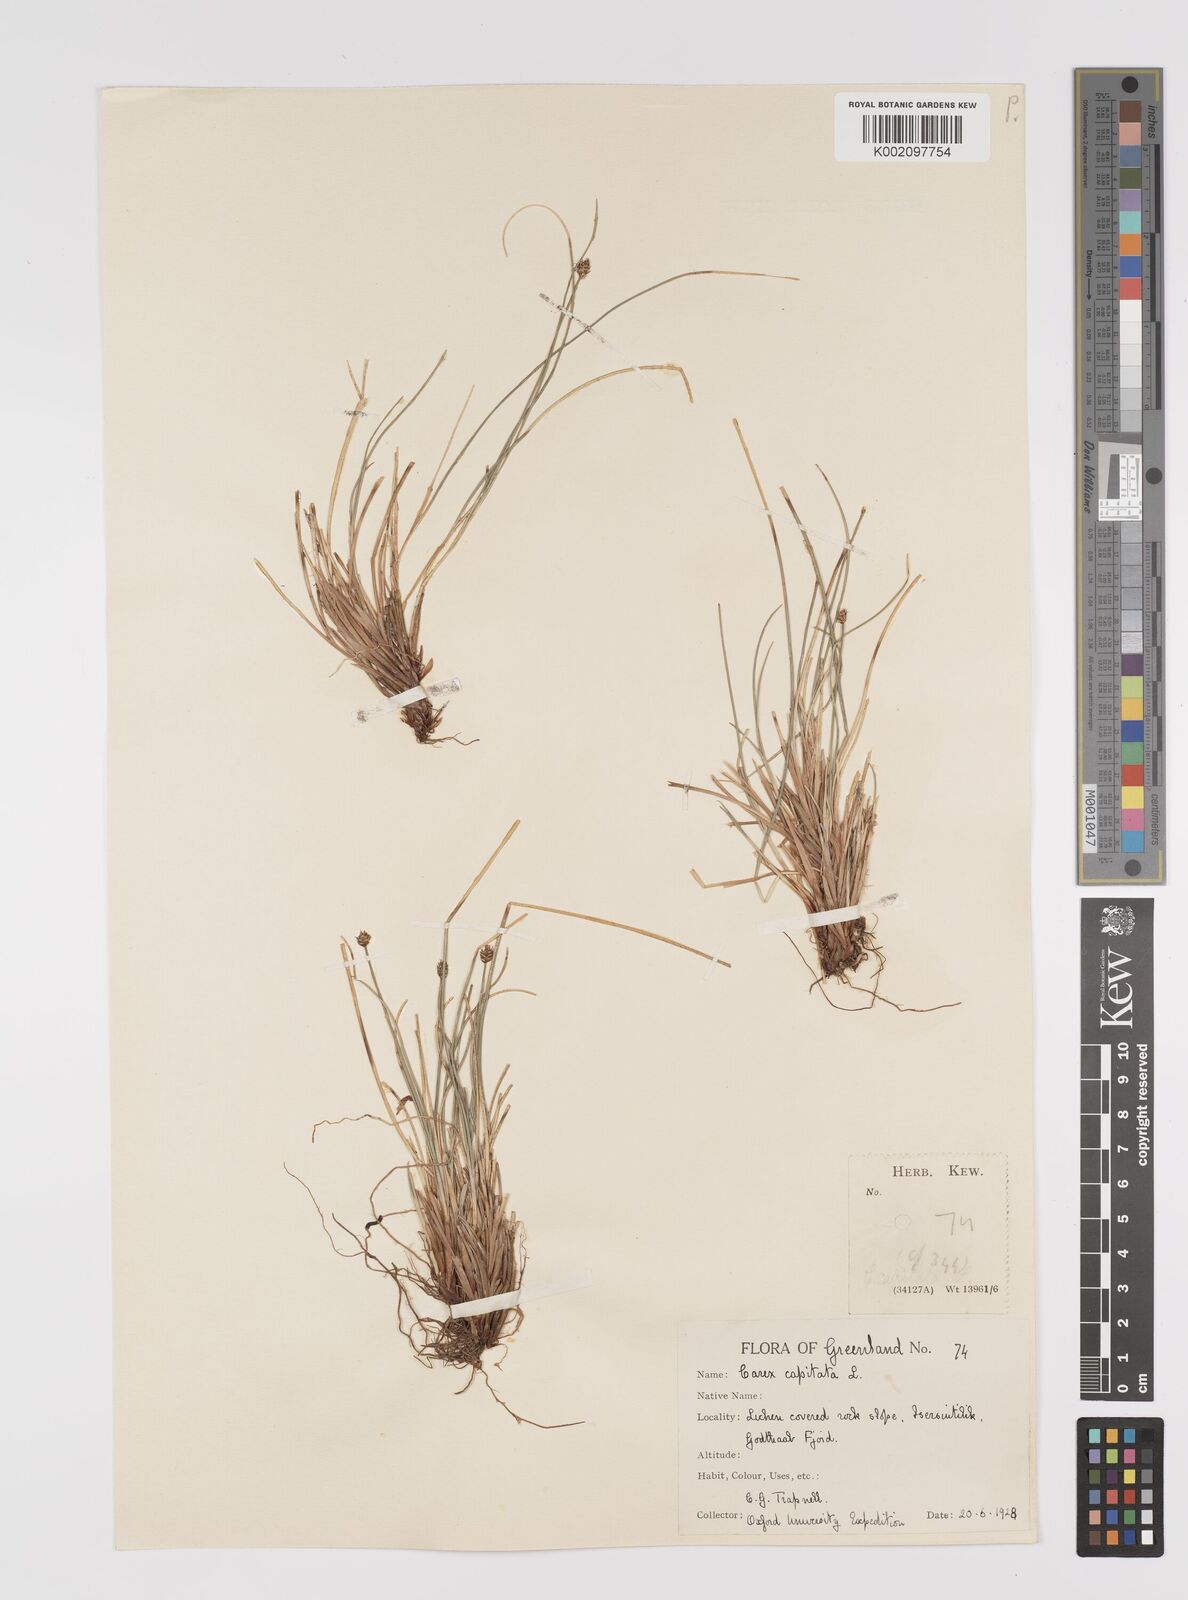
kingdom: Plantae
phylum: Tracheophyta
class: Liliopsida
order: Poales
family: Cyperaceae
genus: Carex
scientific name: Carex capitata
